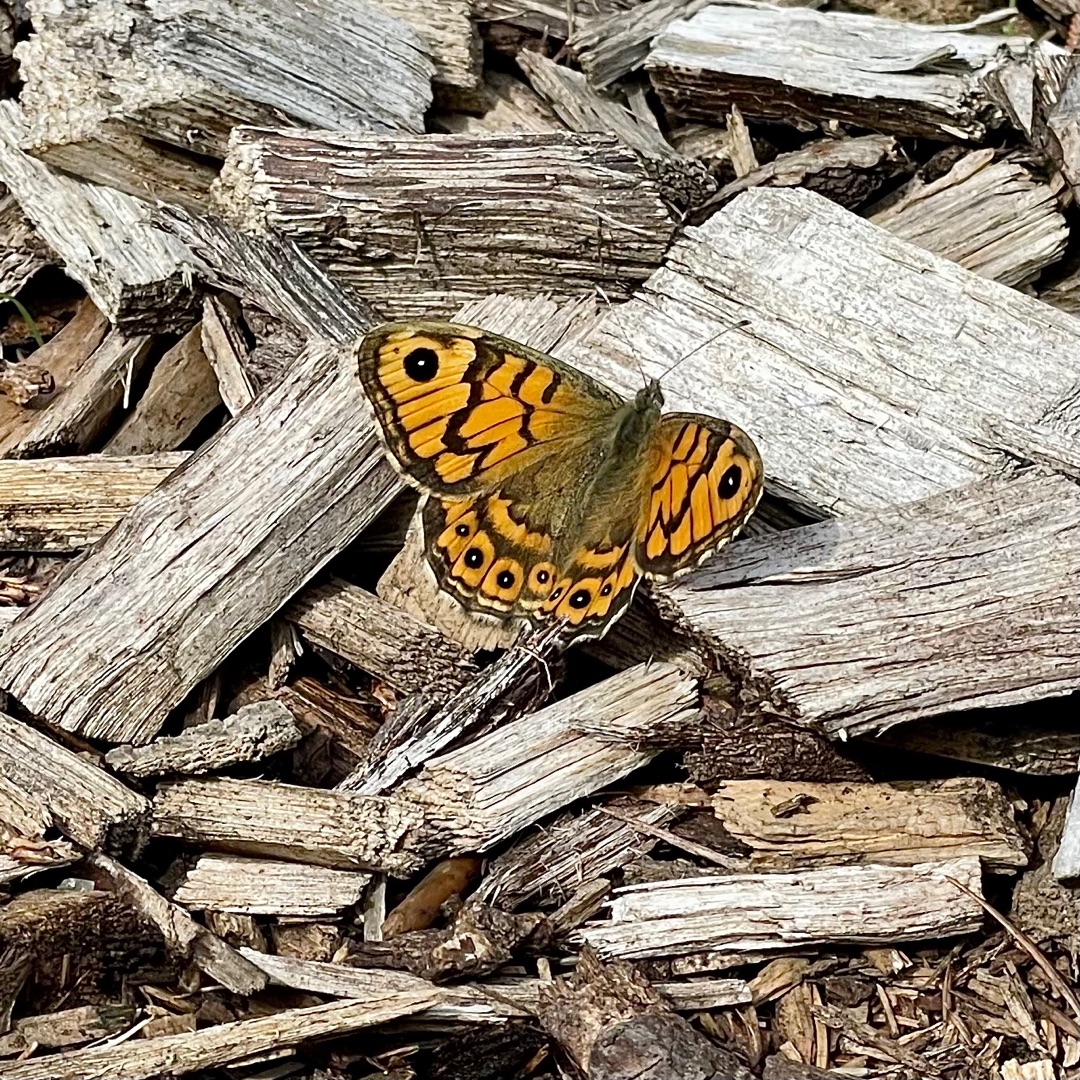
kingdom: Animalia
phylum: Arthropoda
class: Insecta
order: Lepidoptera
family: Nymphalidae
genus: Pararge
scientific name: Pararge Lasiommata megera
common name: Vejrandøje
